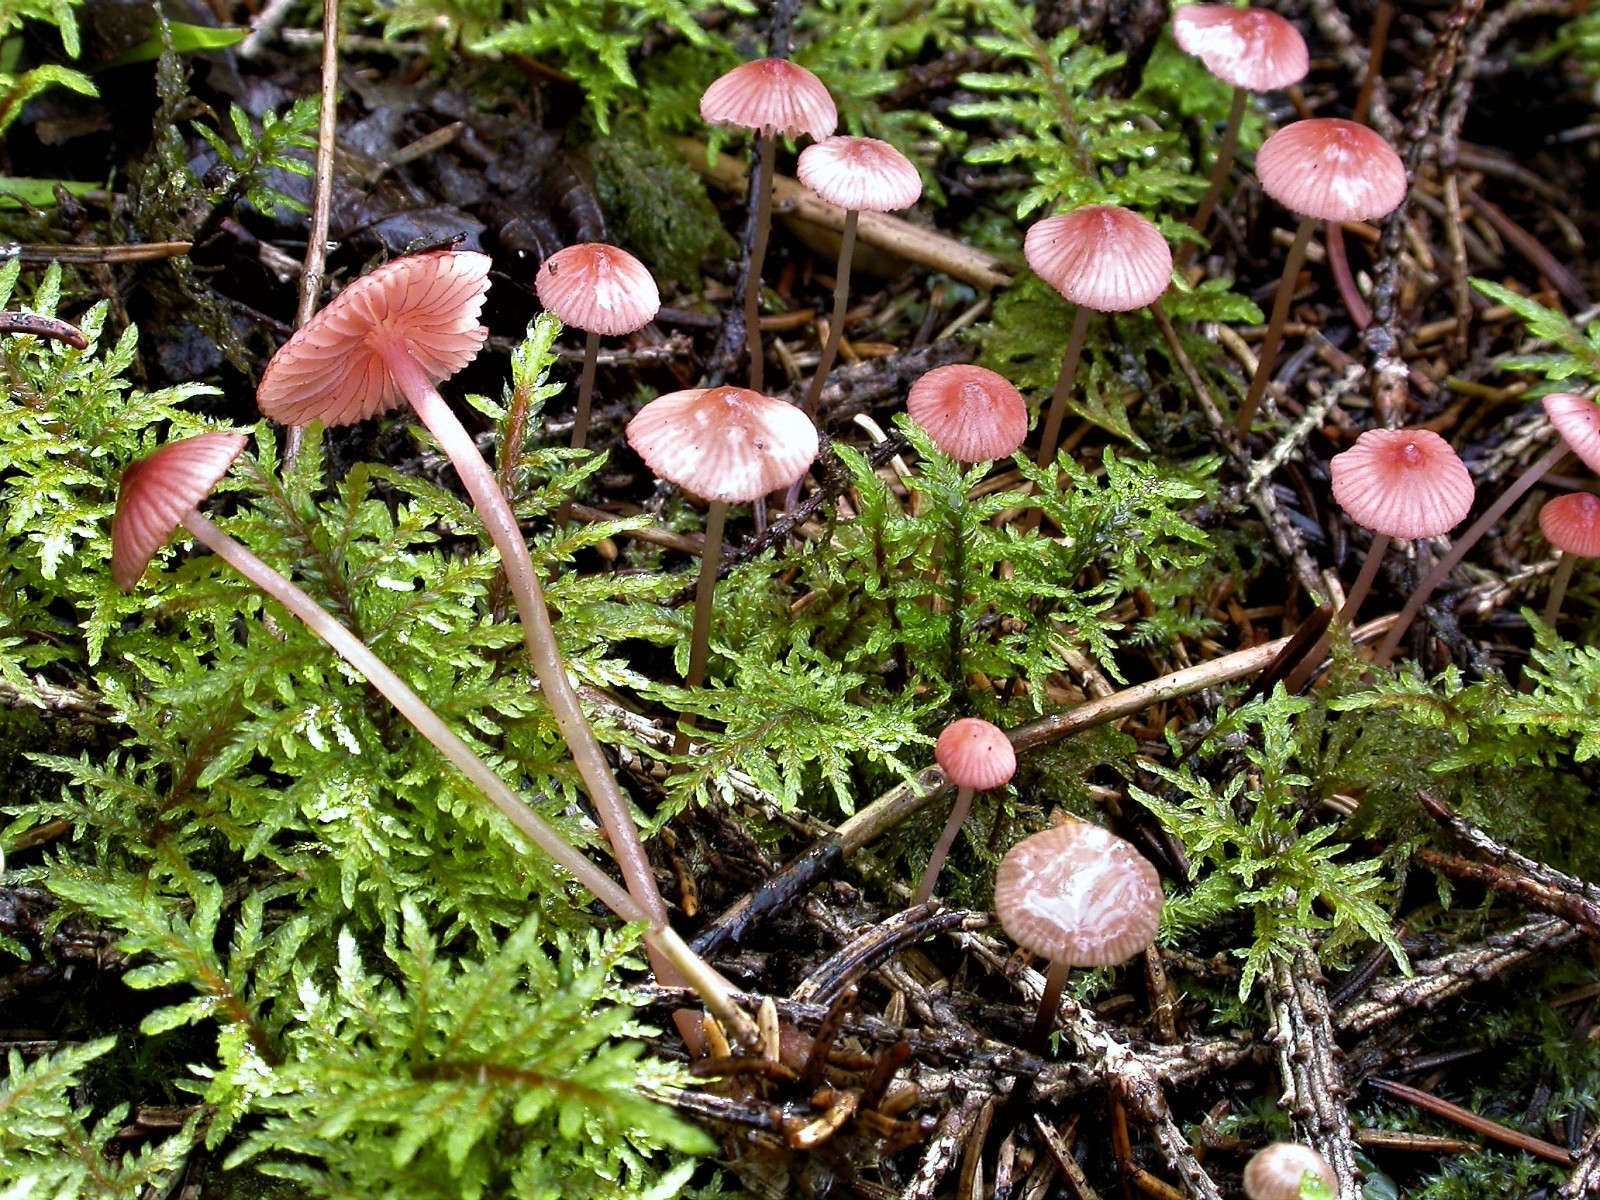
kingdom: Fungi
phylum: Basidiomycota
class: Agaricomycetes
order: Agaricales
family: Mycenaceae
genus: Mycena
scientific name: Mycena rosella
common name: rosenrød huesvamp
